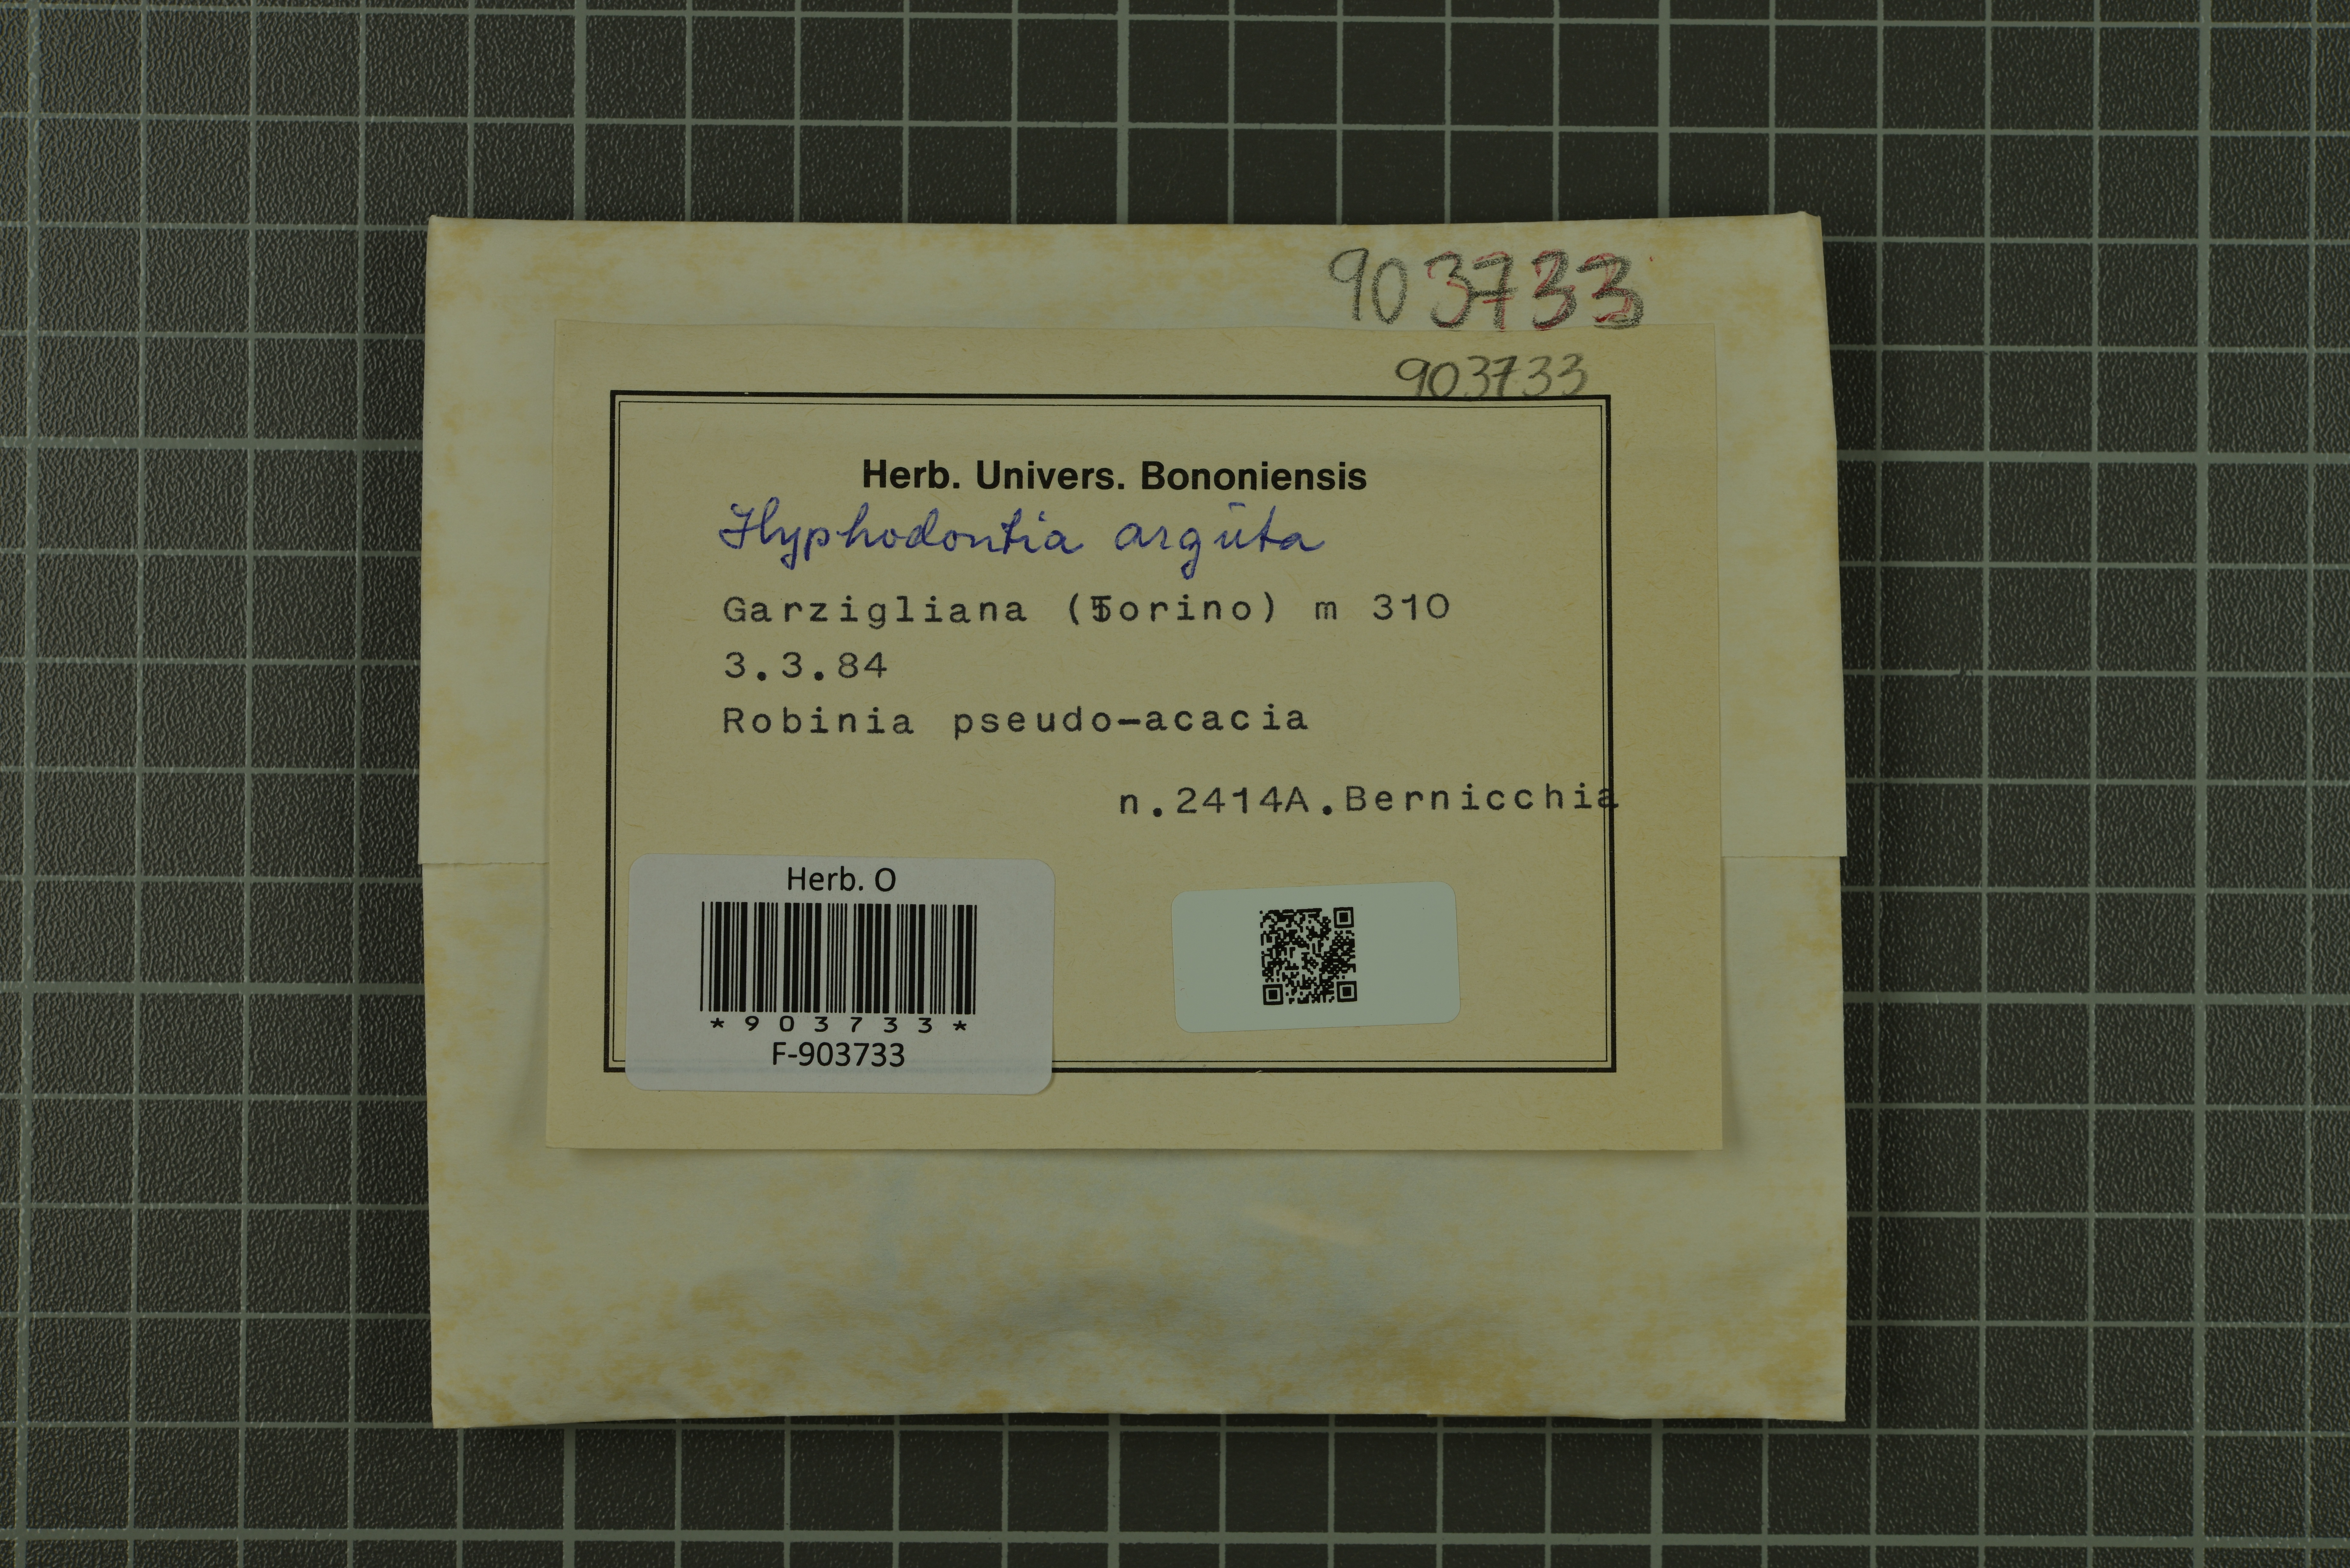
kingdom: Fungi
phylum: Basidiomycota
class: Agaricomycetes
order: Hymenochaetales
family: Hyphodontiaceae
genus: Hyphodontia
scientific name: Hyphodontia arguta
